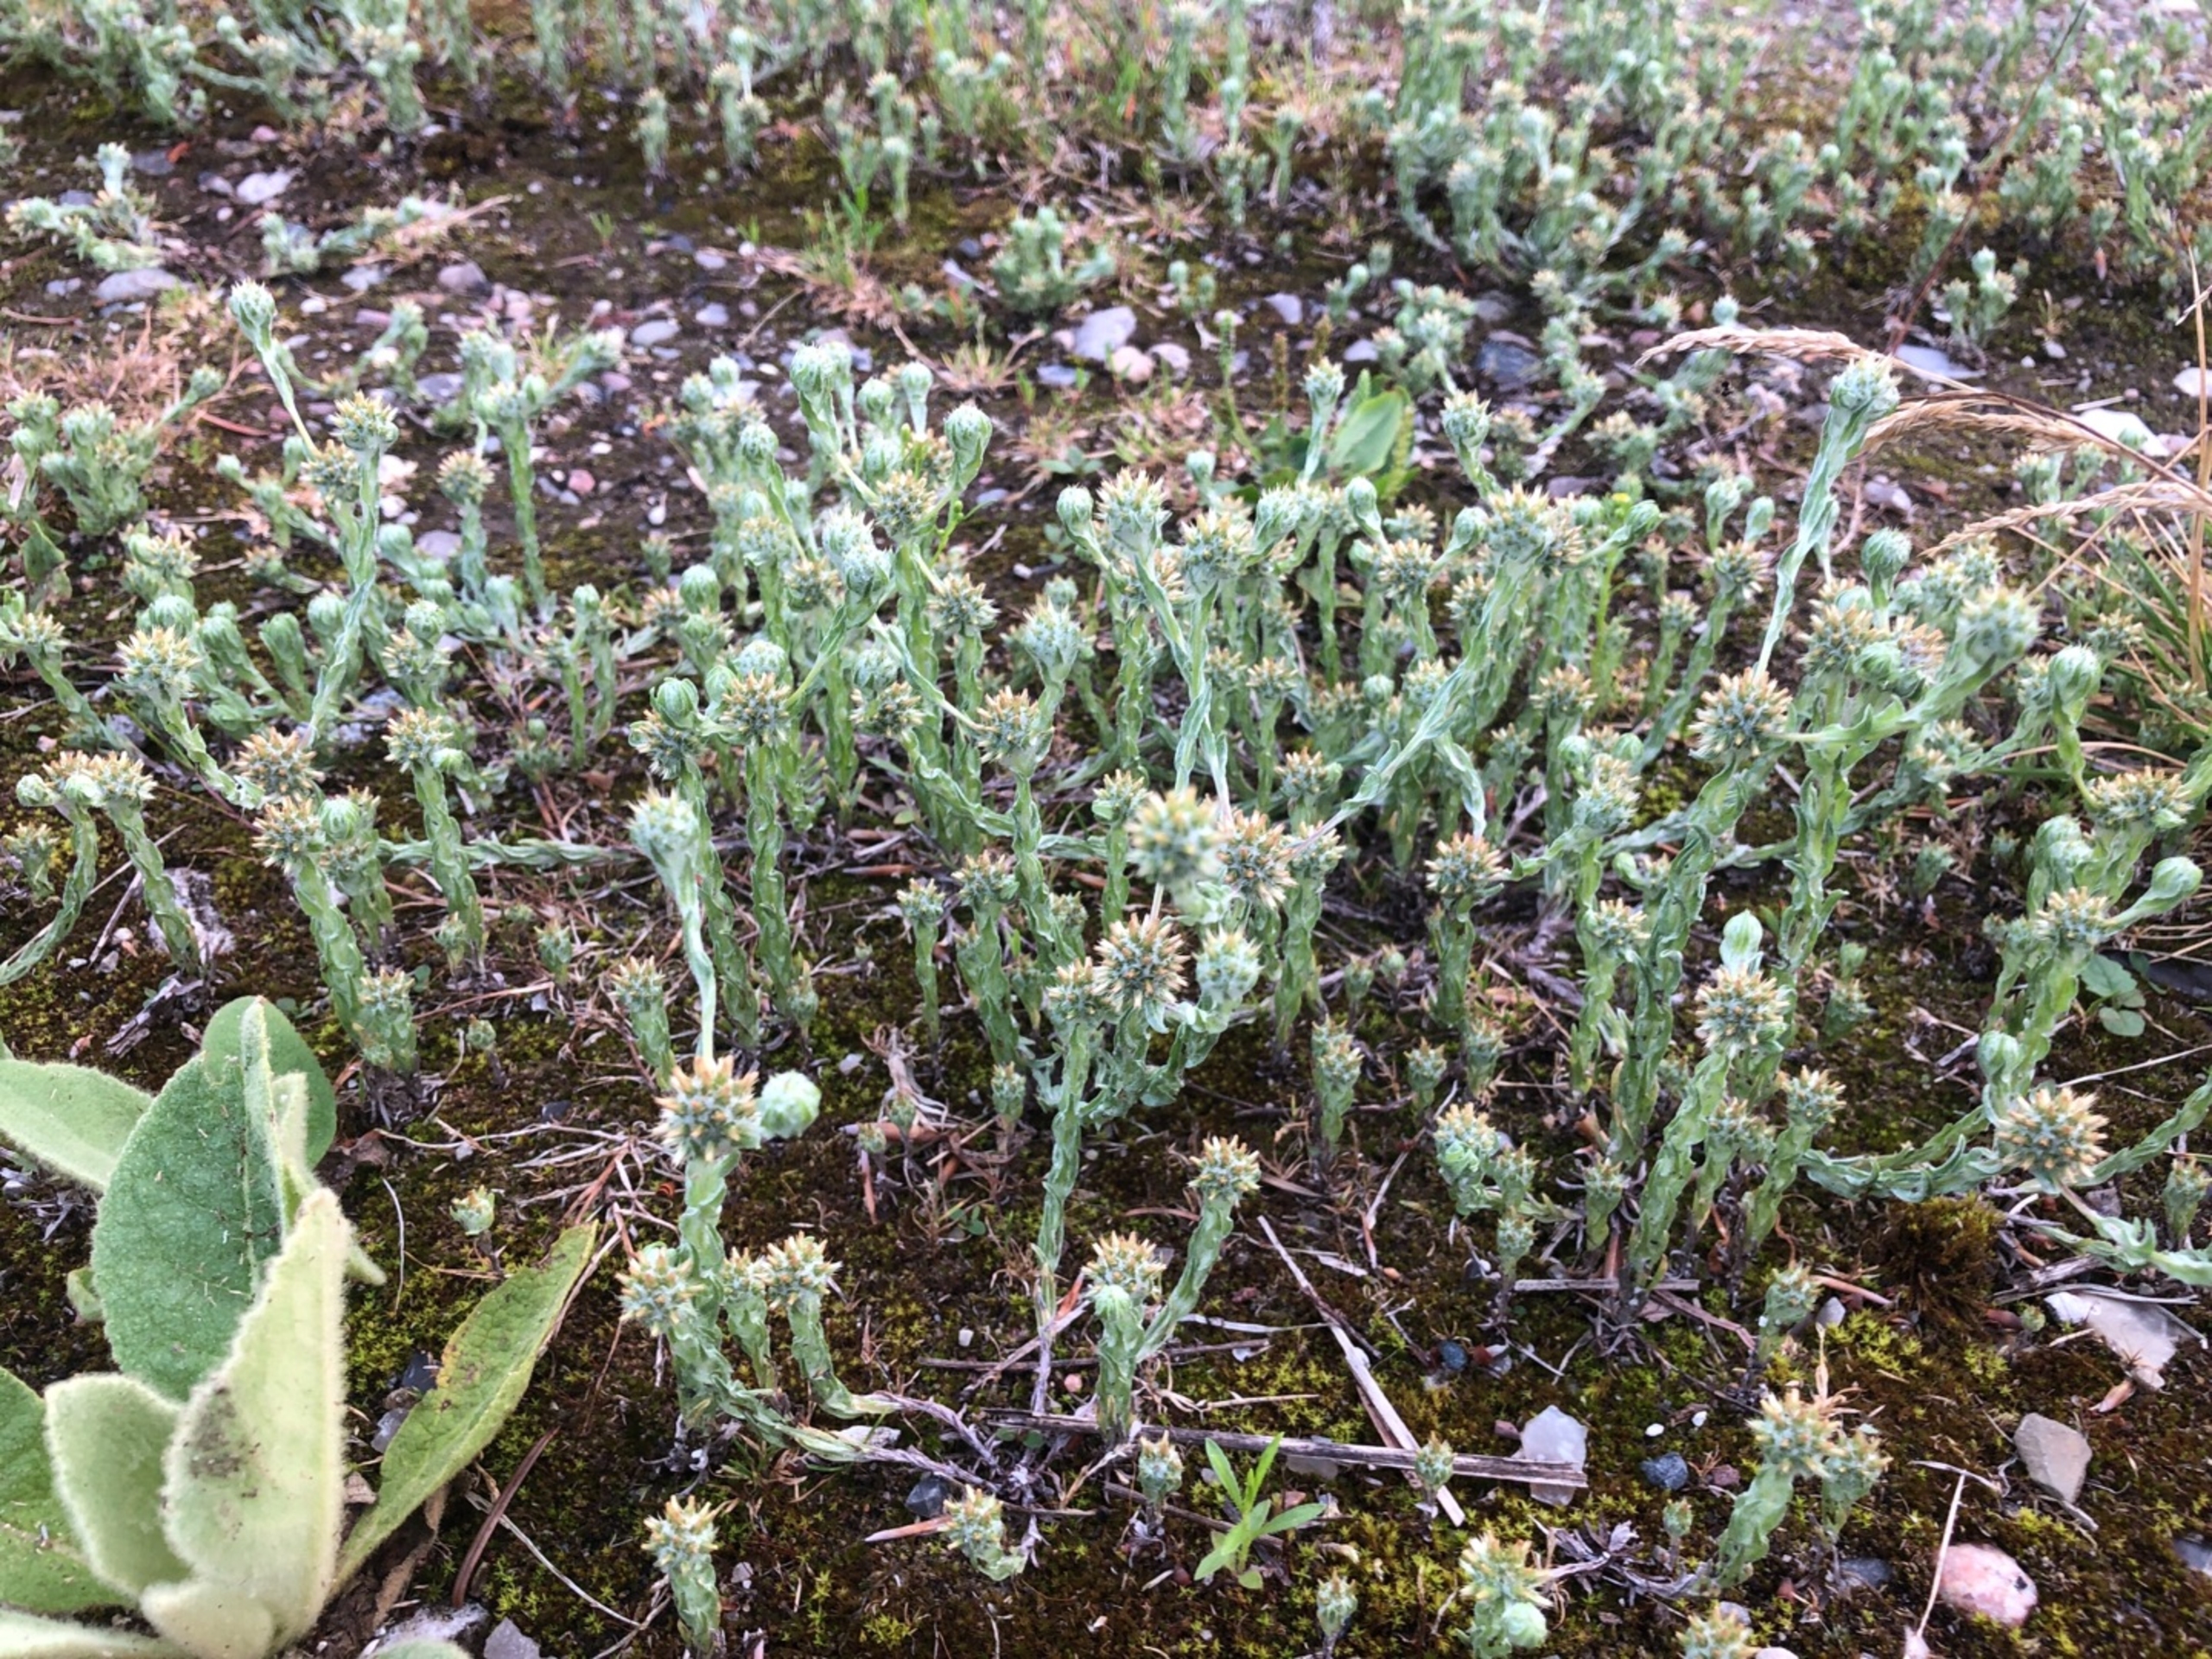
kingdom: Plantae
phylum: Tracheophyta
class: Magnoliopsida
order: Asterales
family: Asteraceae
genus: Filago
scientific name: Filago germanica
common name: Kugle-museurt
